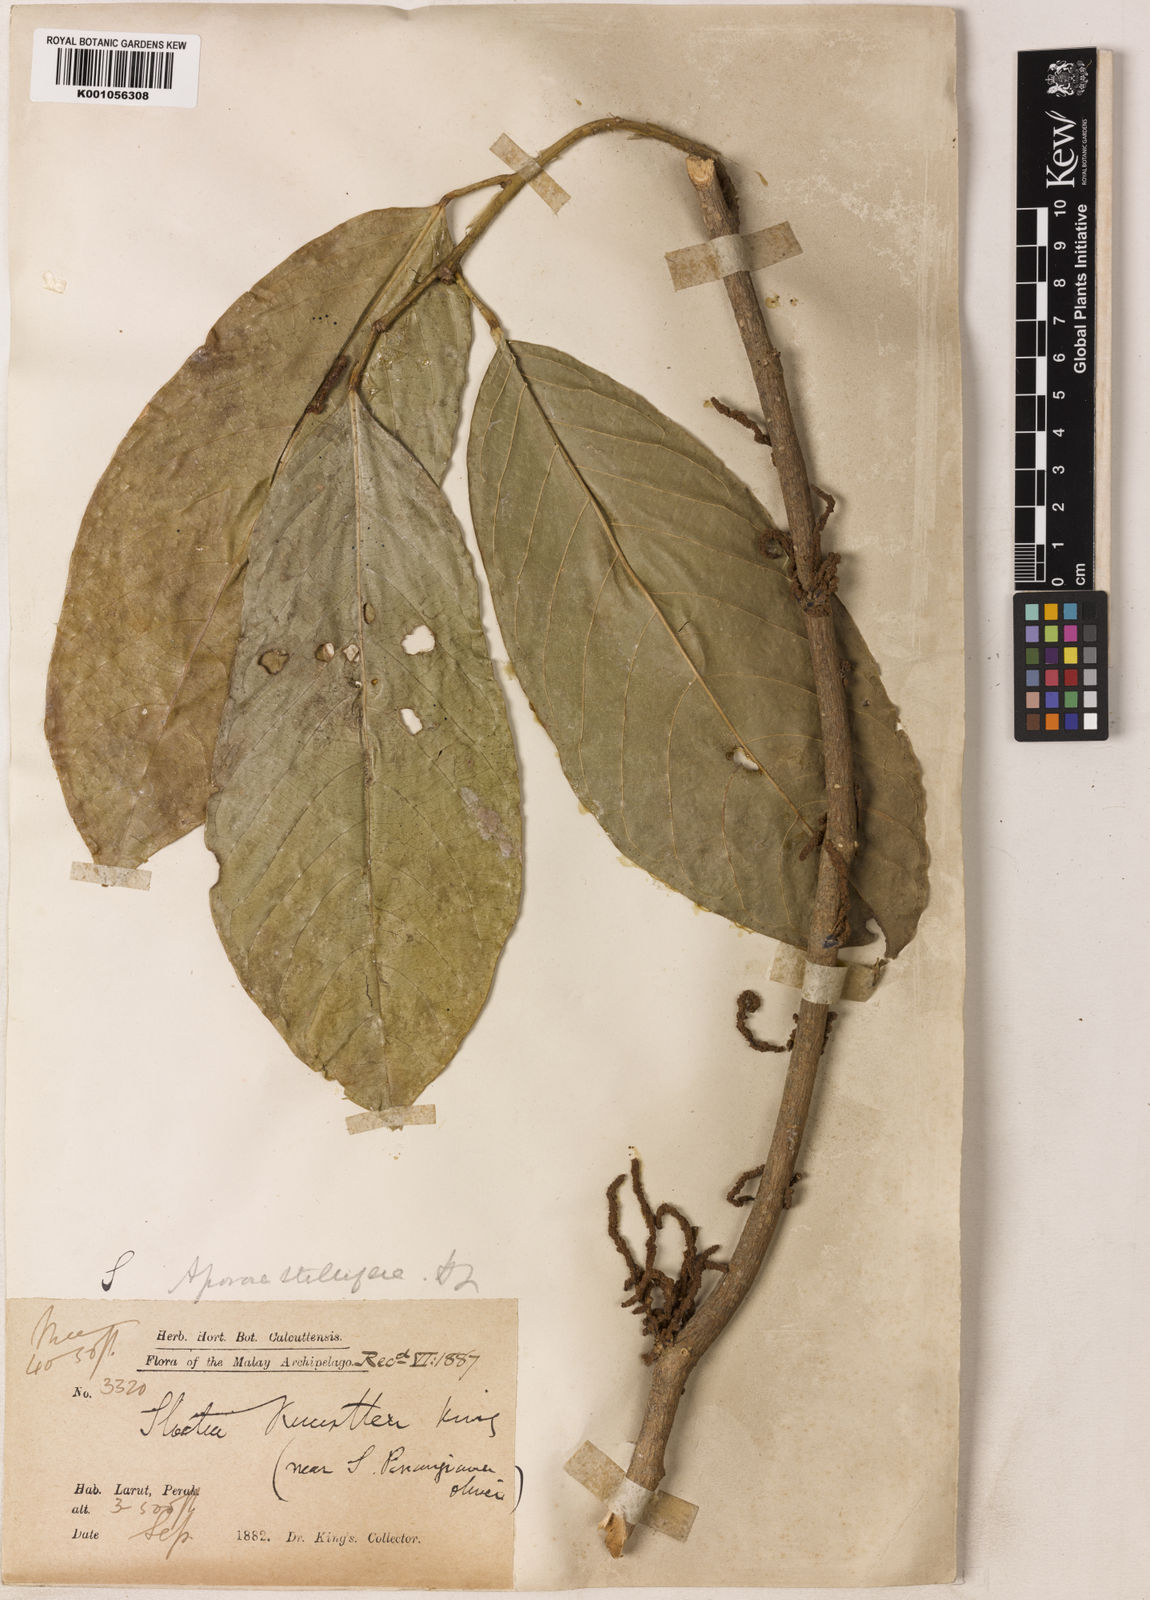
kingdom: Plantae
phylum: Tracheophyta
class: Magnoliopsida
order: Malpighiales
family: Phyllanthaceae
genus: Aporosa
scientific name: Aporosa stellifera
